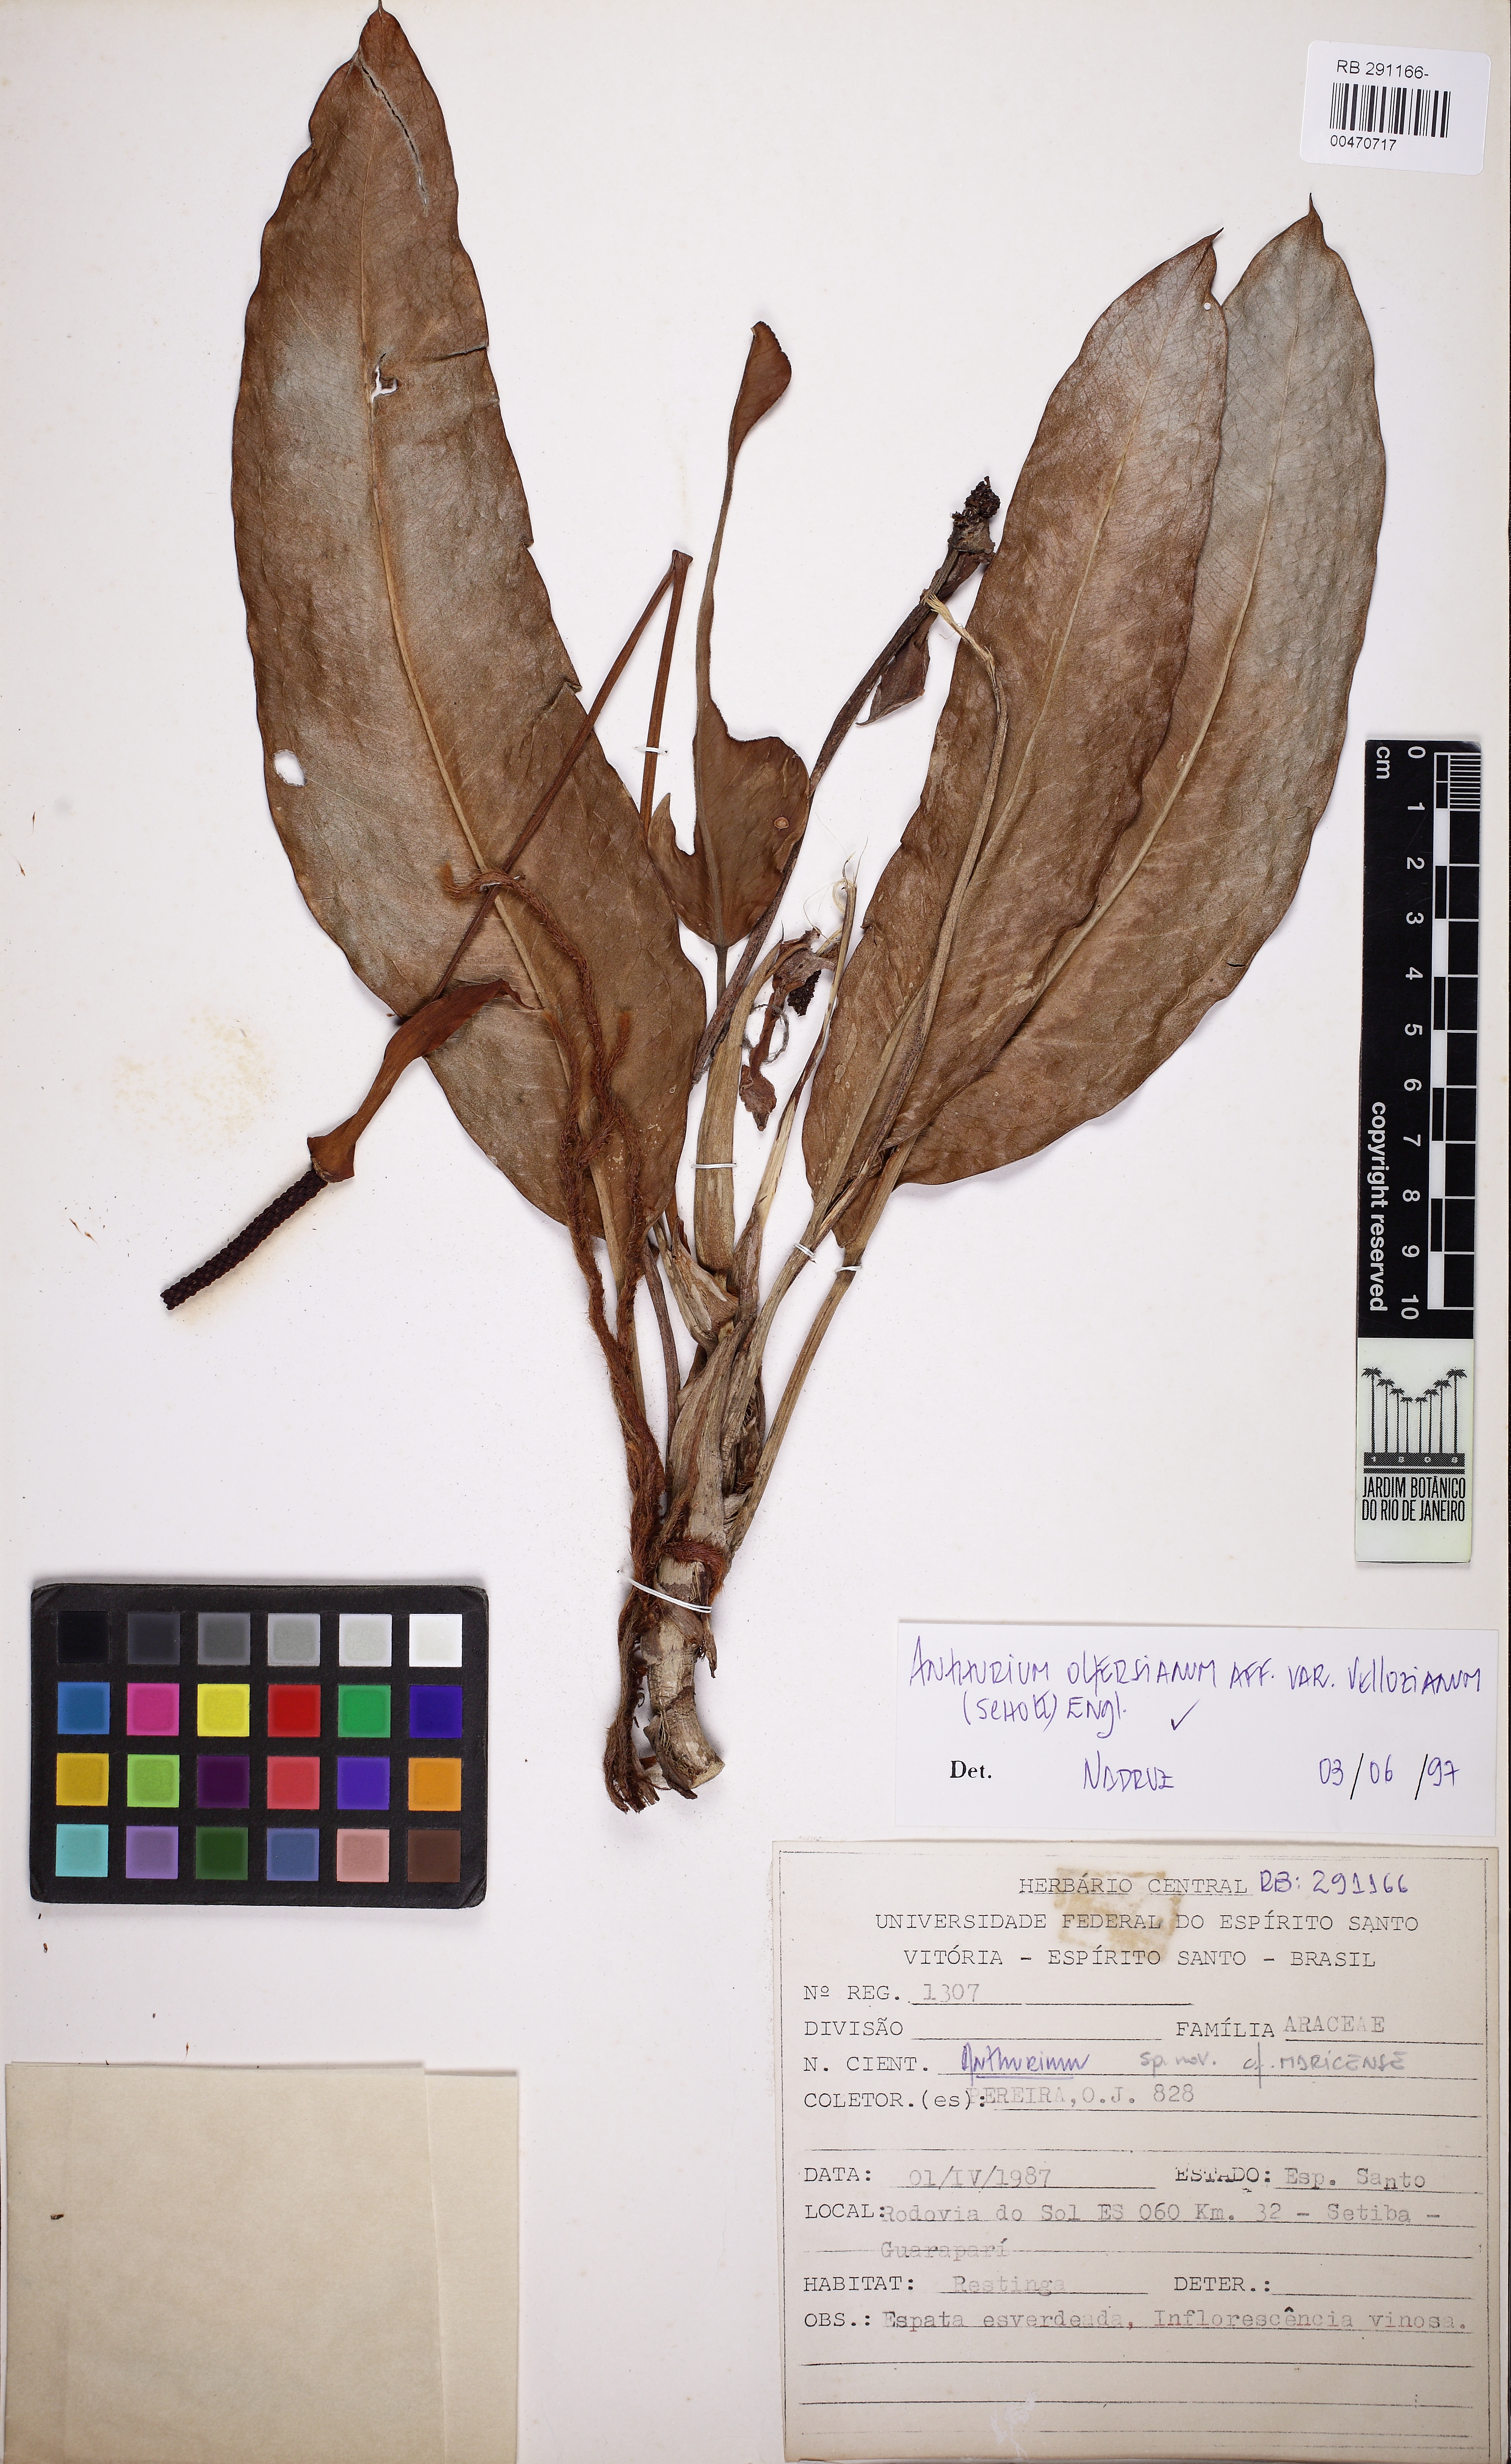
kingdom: Plantae
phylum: Tracheophyta
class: Liliopsida
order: Alismatales
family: Araceae
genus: Anthurium
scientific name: Anthurium parasiticum
